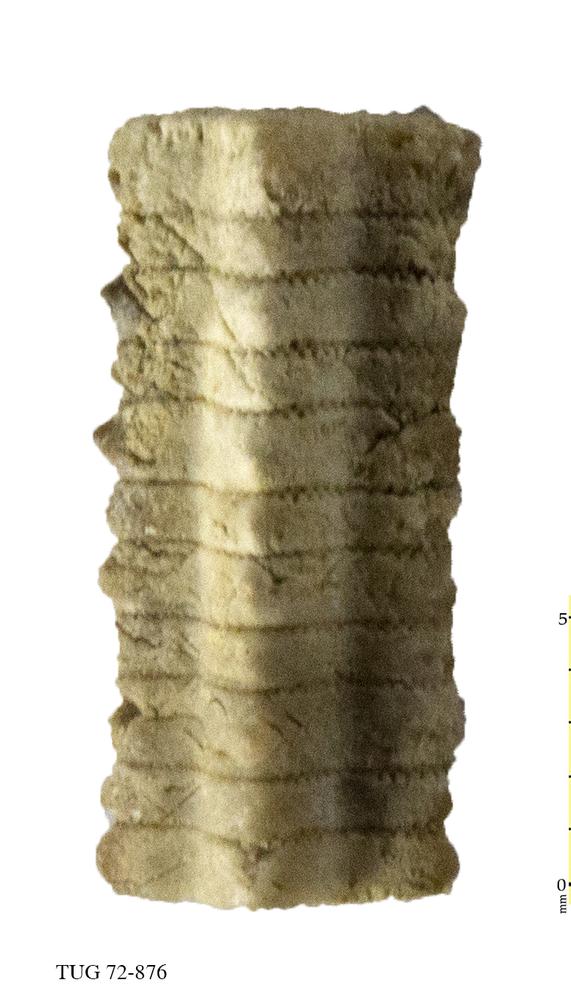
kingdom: Animalia
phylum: Echinodermata
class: Crinoidea
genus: Baltocrinus
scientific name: Baltocrinus
